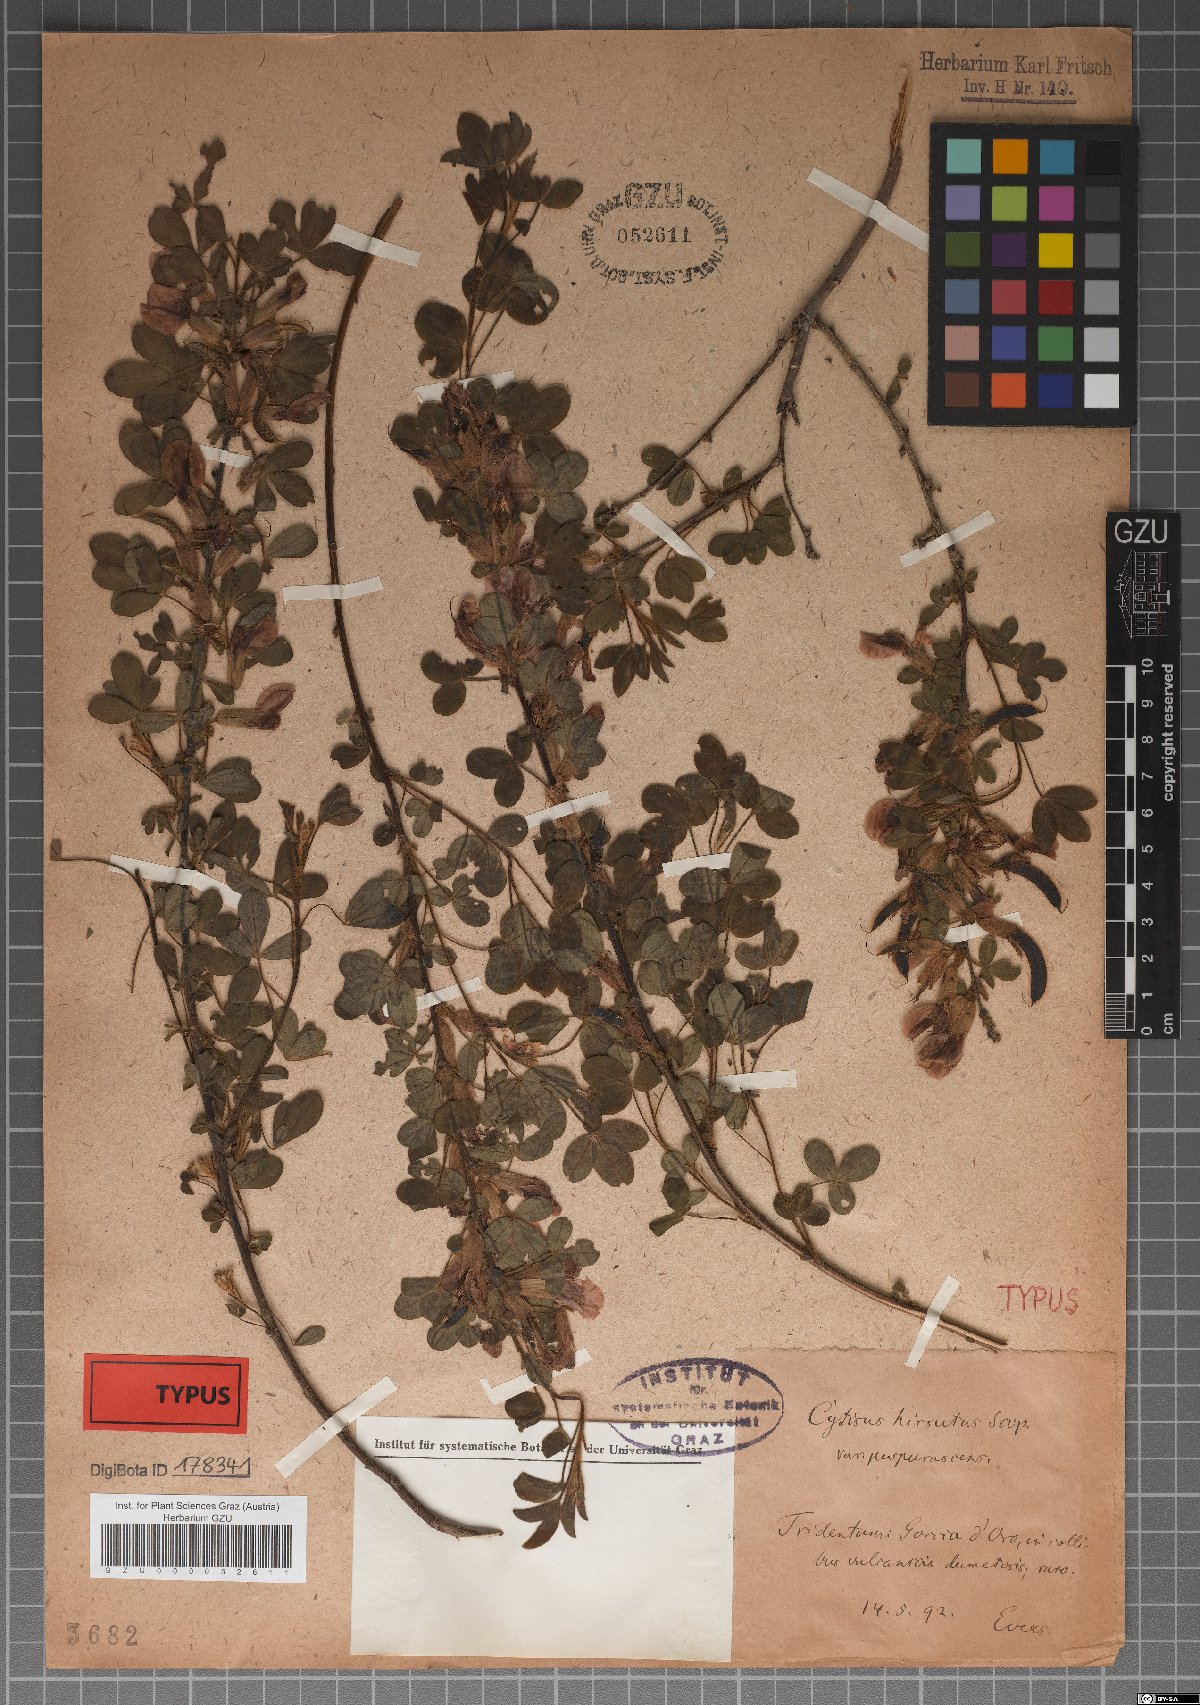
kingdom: Plantae
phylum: Tracheophyta
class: Magnoliopsida
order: Fabales
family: Fabaceae
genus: Chamaecytisus
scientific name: Chamaecytisus hirsutus
